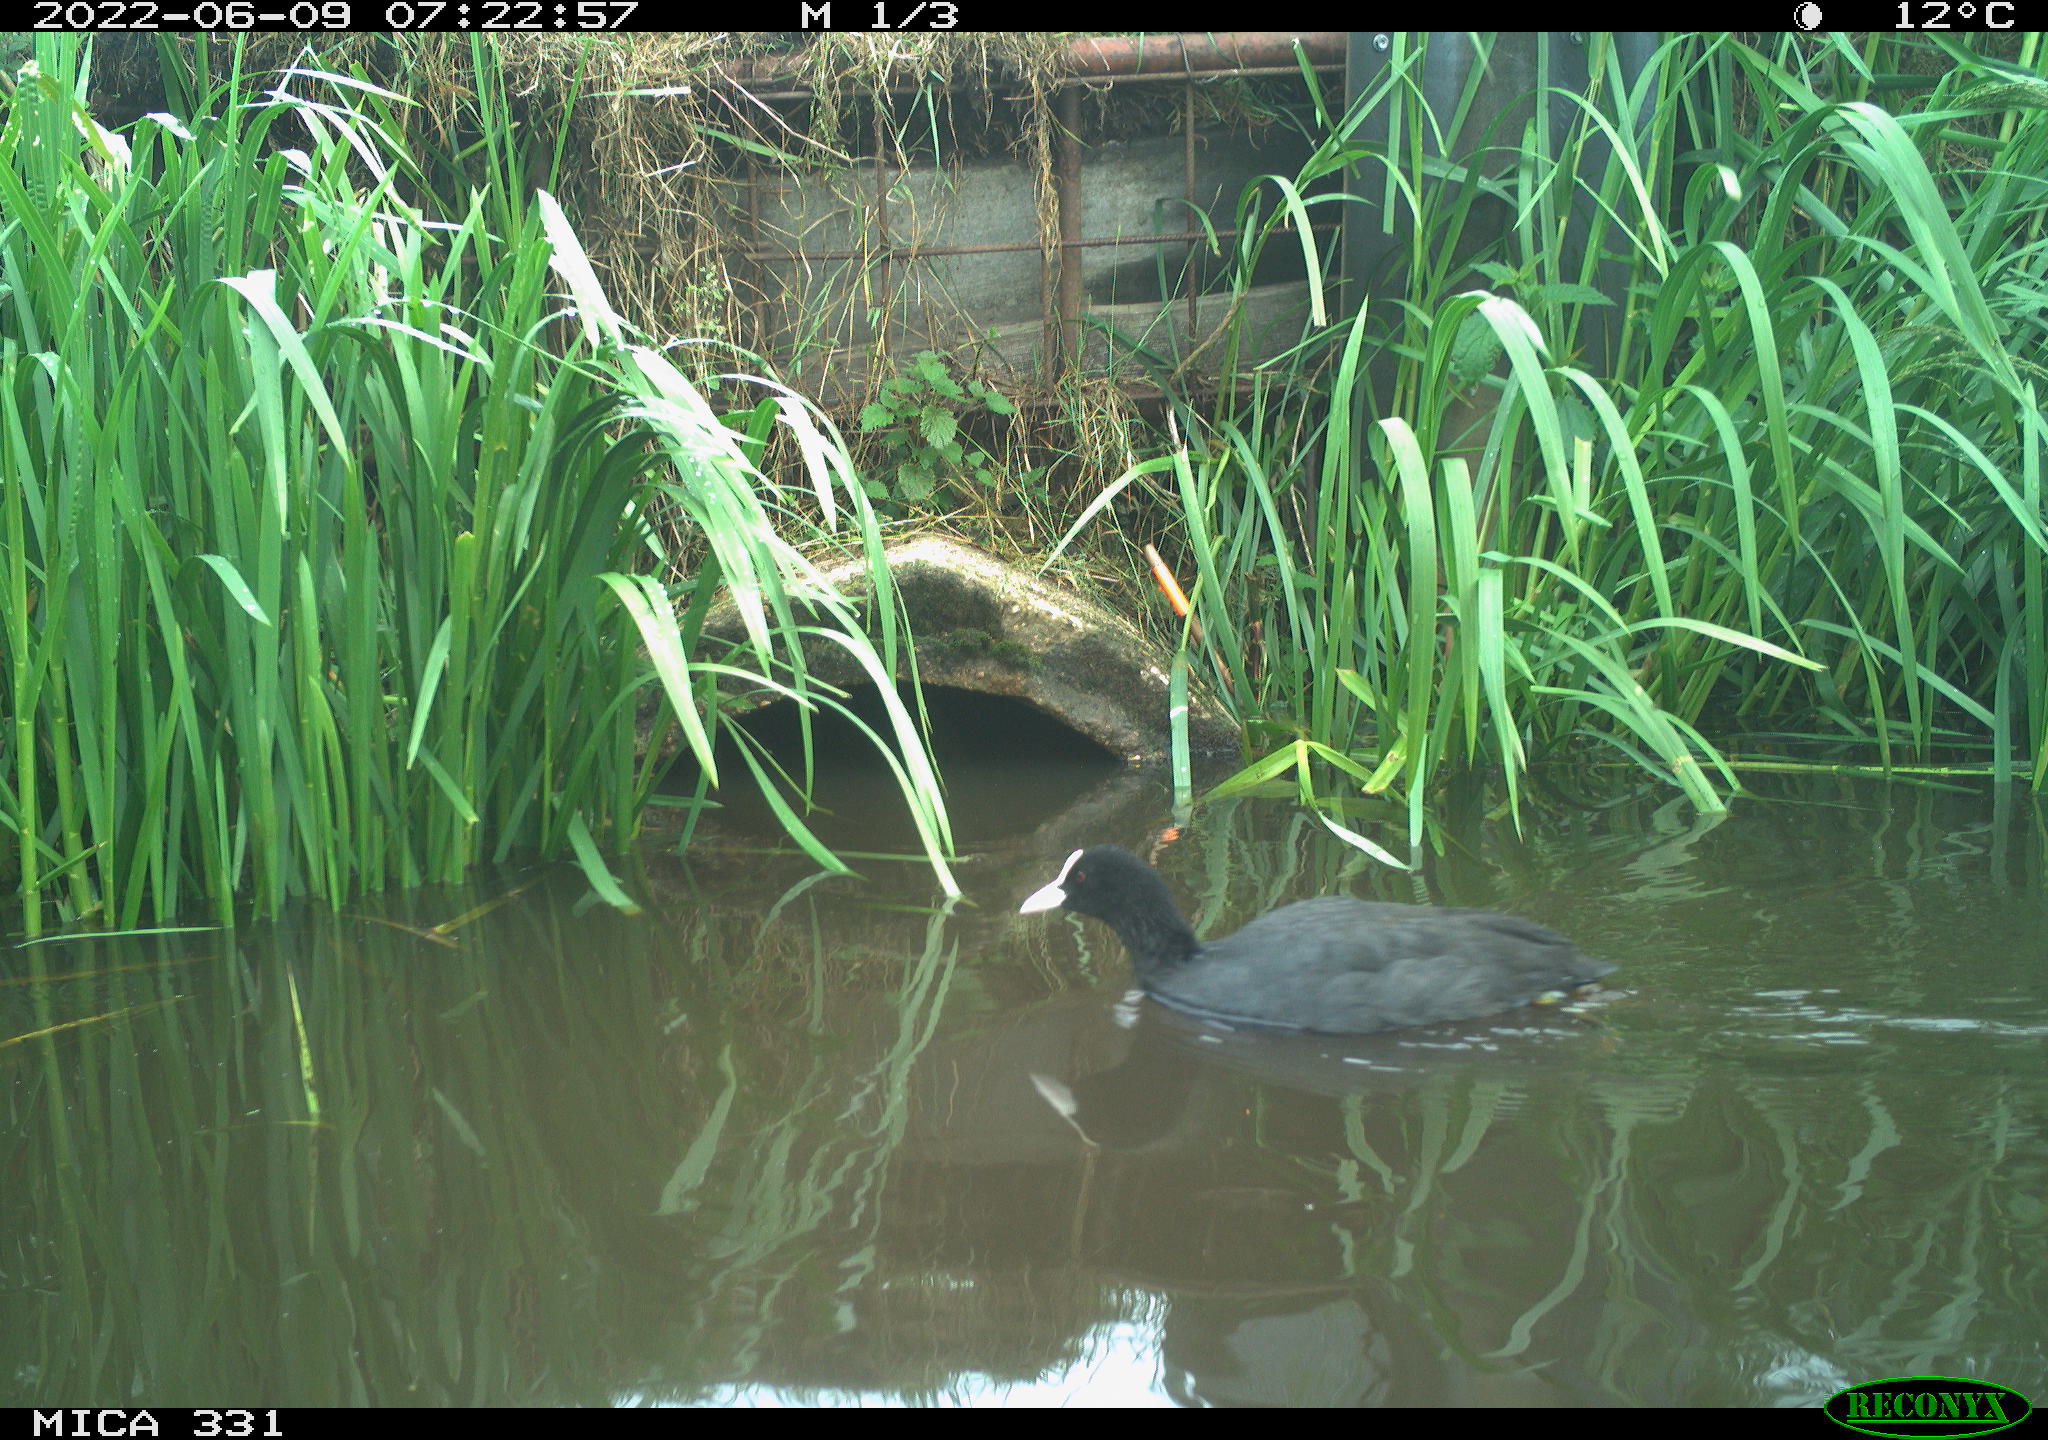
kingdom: Animalia
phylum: Chordata
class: Aves
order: Gruiformes
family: Rallidae
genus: Fulica
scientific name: Fulica atra
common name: Eurasian coot
